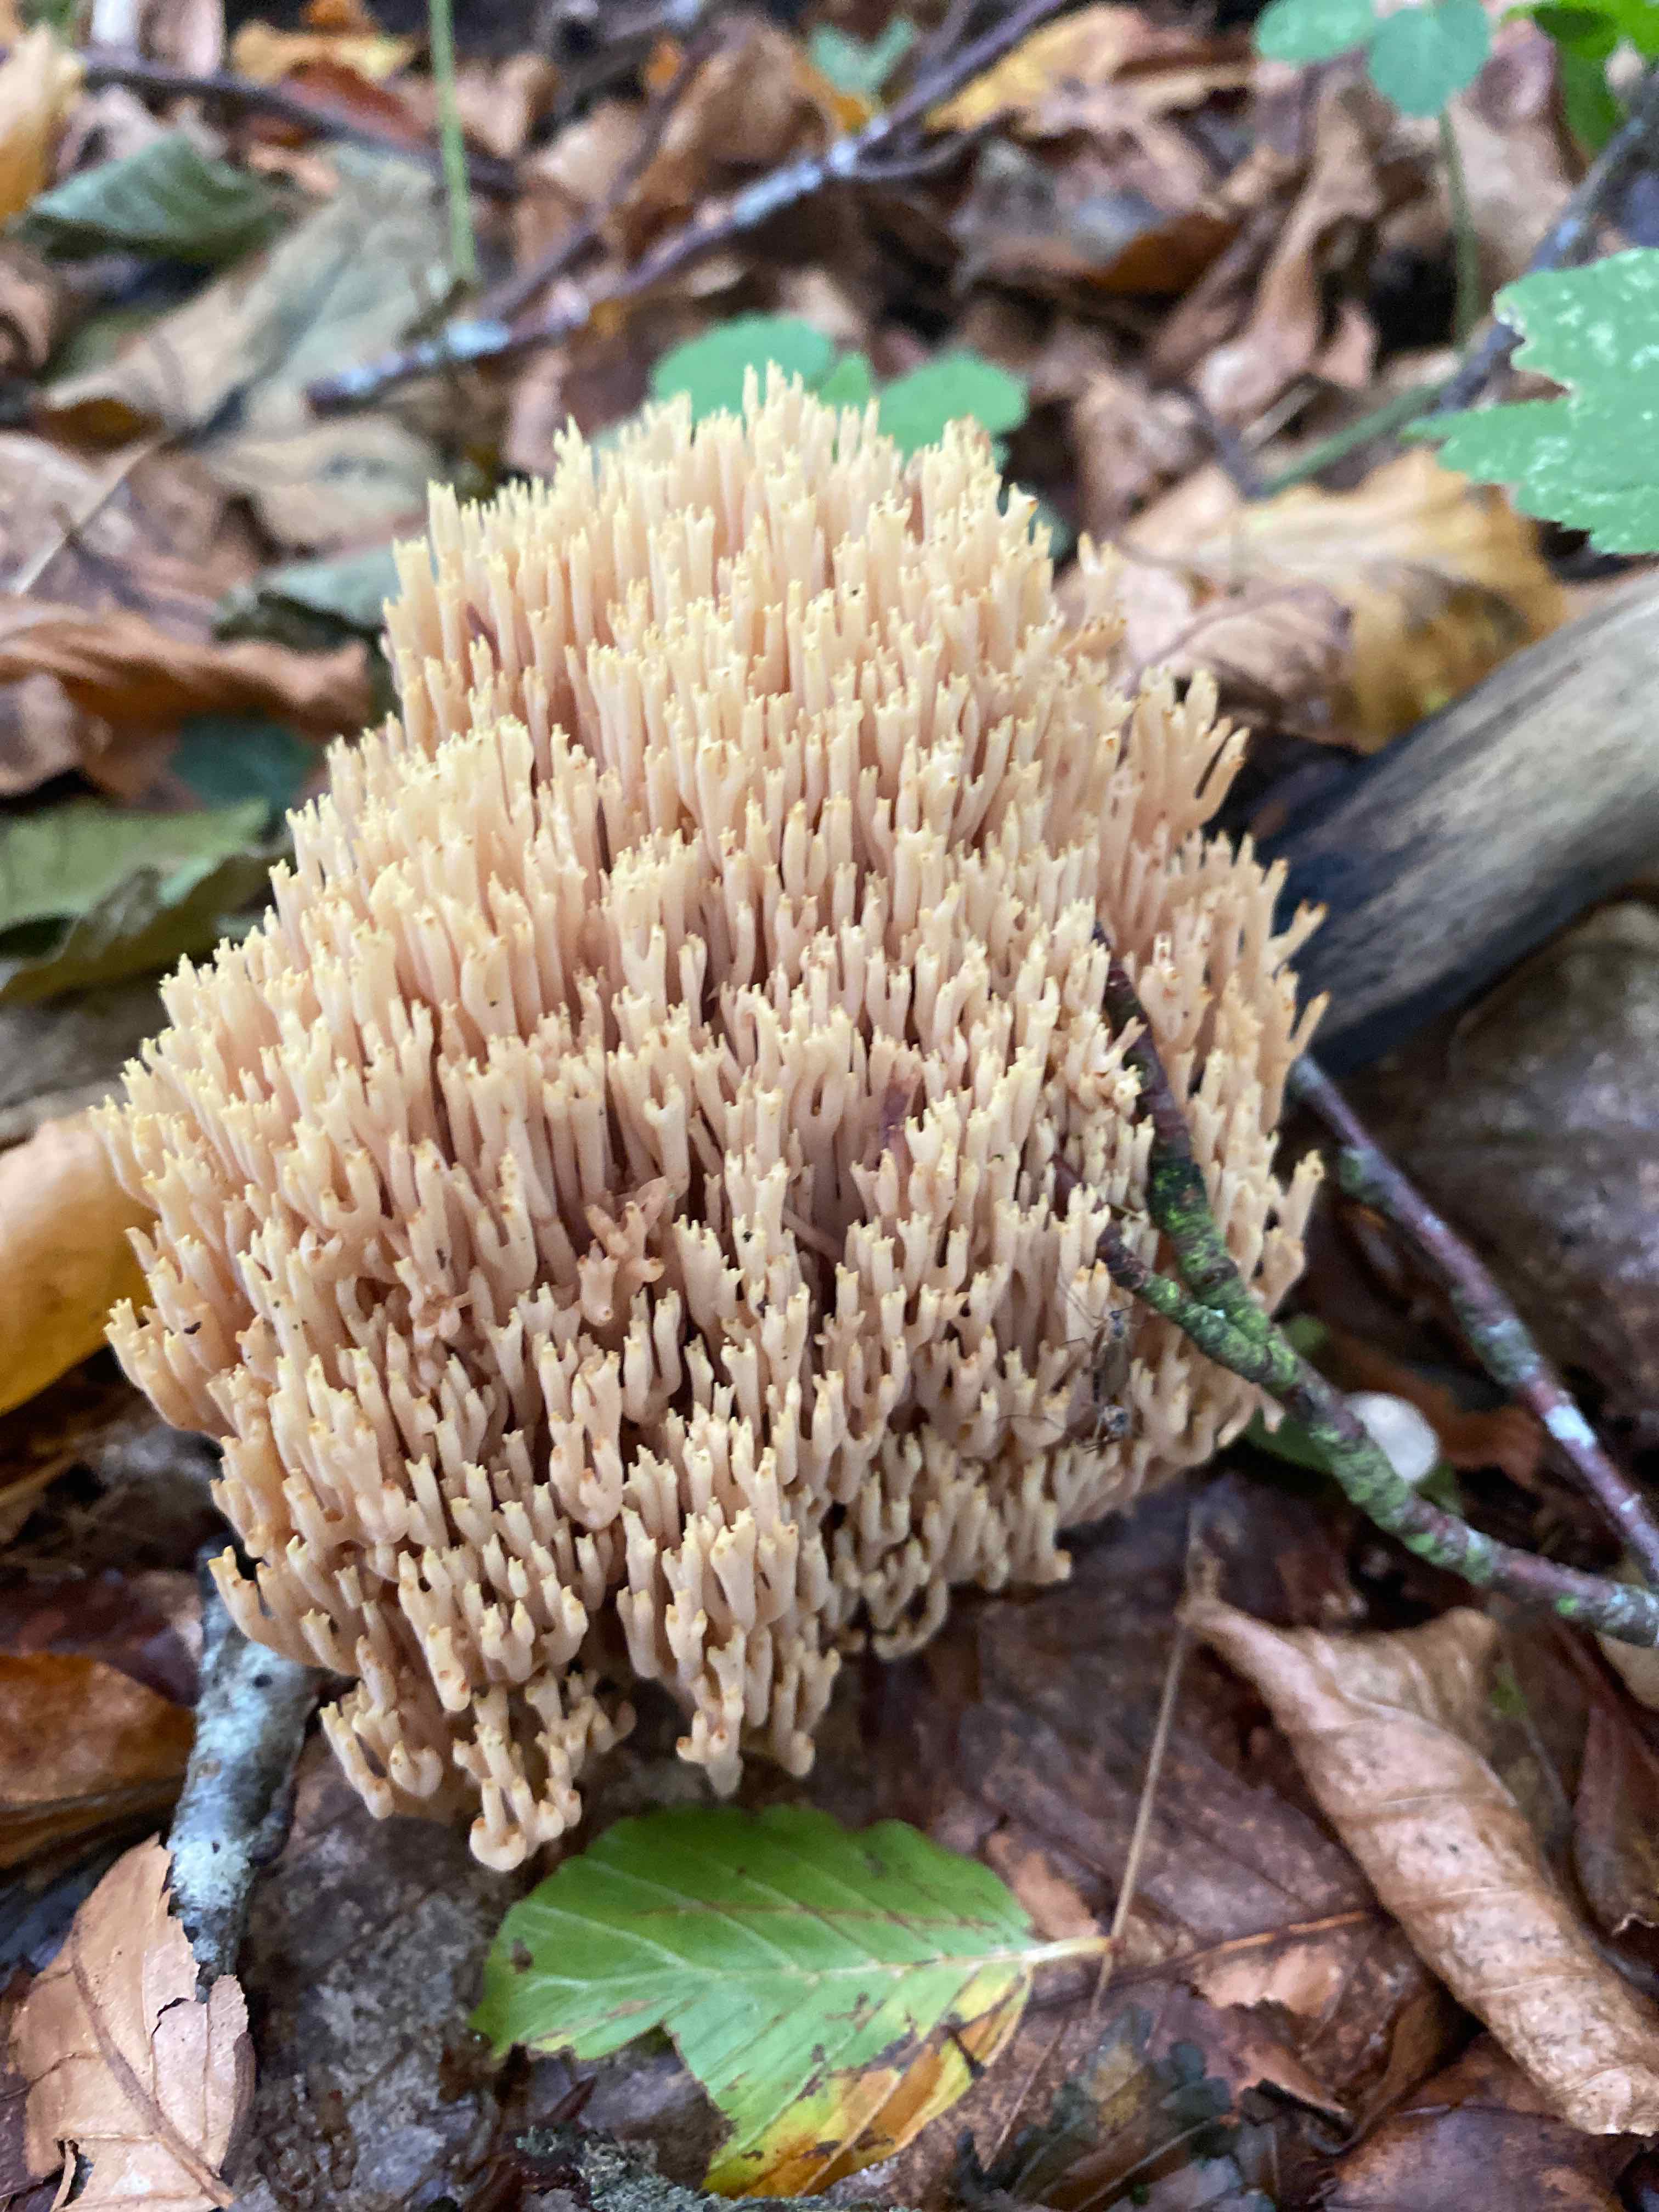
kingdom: Fungi
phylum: Basidiomycota
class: Agaricomycetes
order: Gomphales
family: Gomphaceae
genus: Ramaria
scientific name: Ramaria stricta
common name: rank koralsvamp
